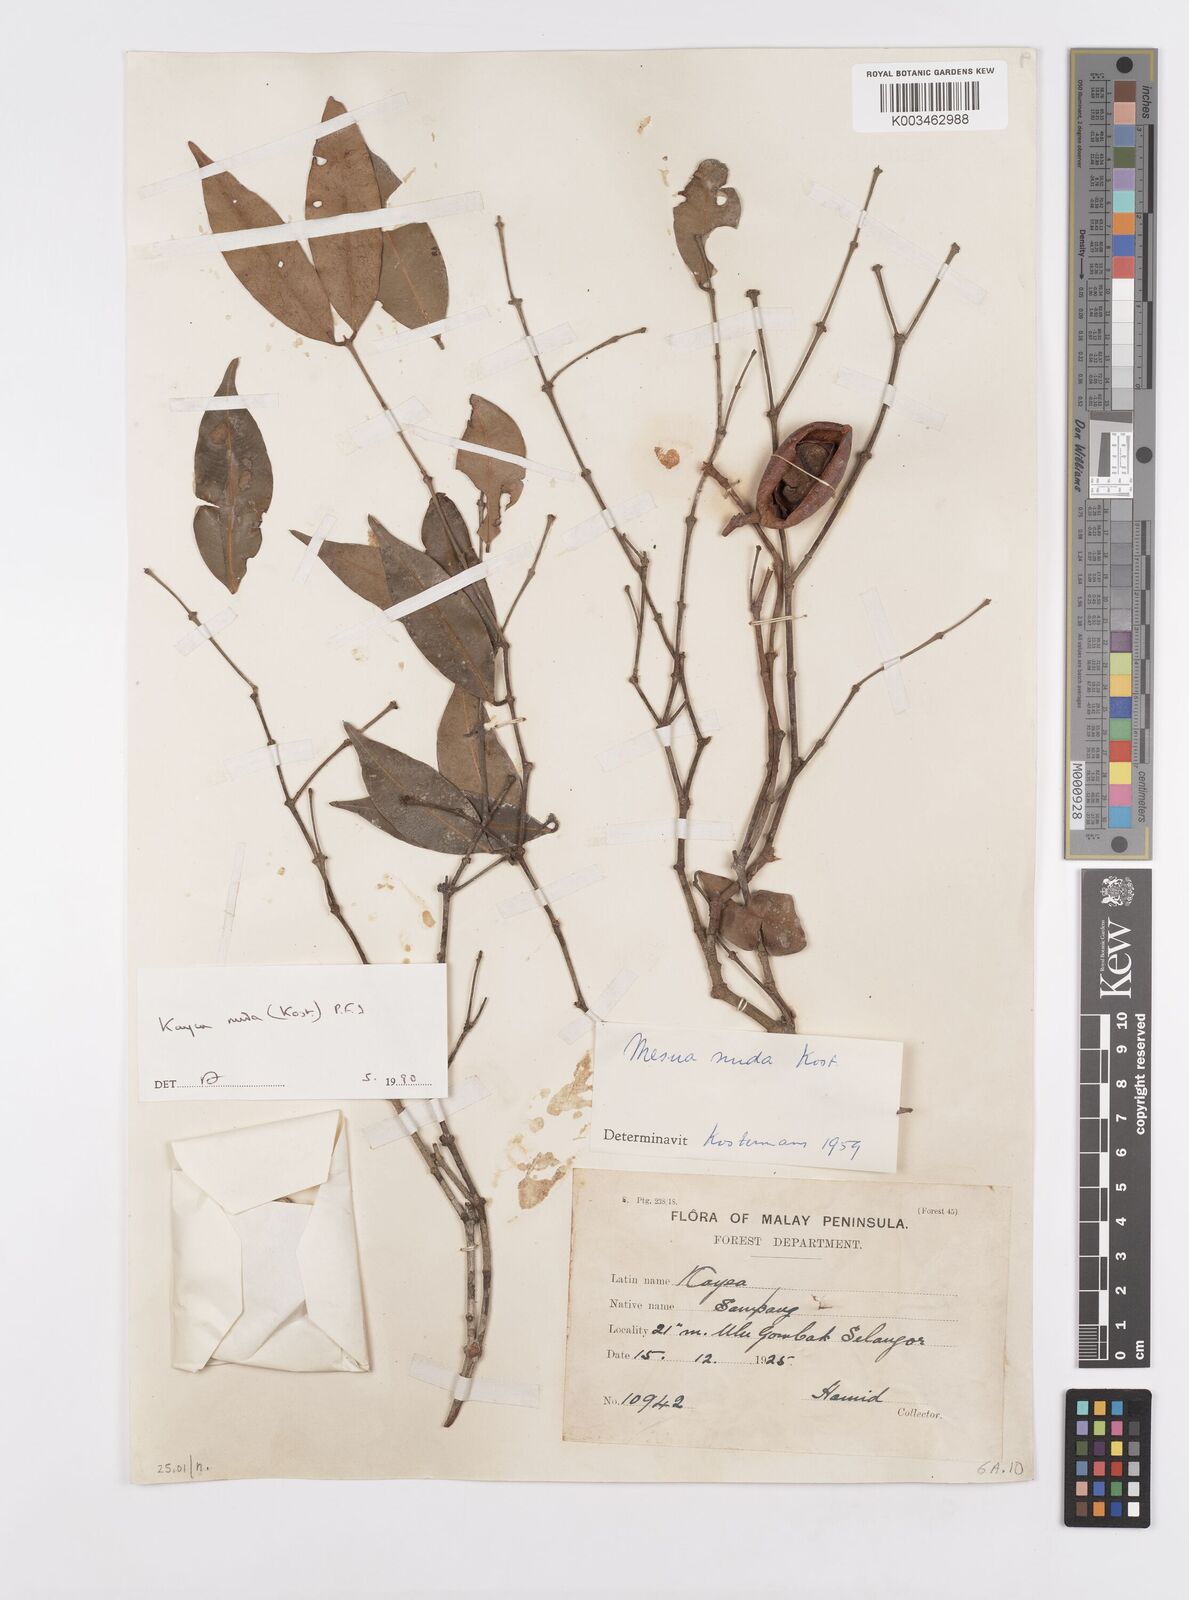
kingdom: Plantae
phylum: Tracheophyta
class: Magnoliopsida
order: Malpighiales
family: Calophyllaceae
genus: Kayea
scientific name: Kayea
